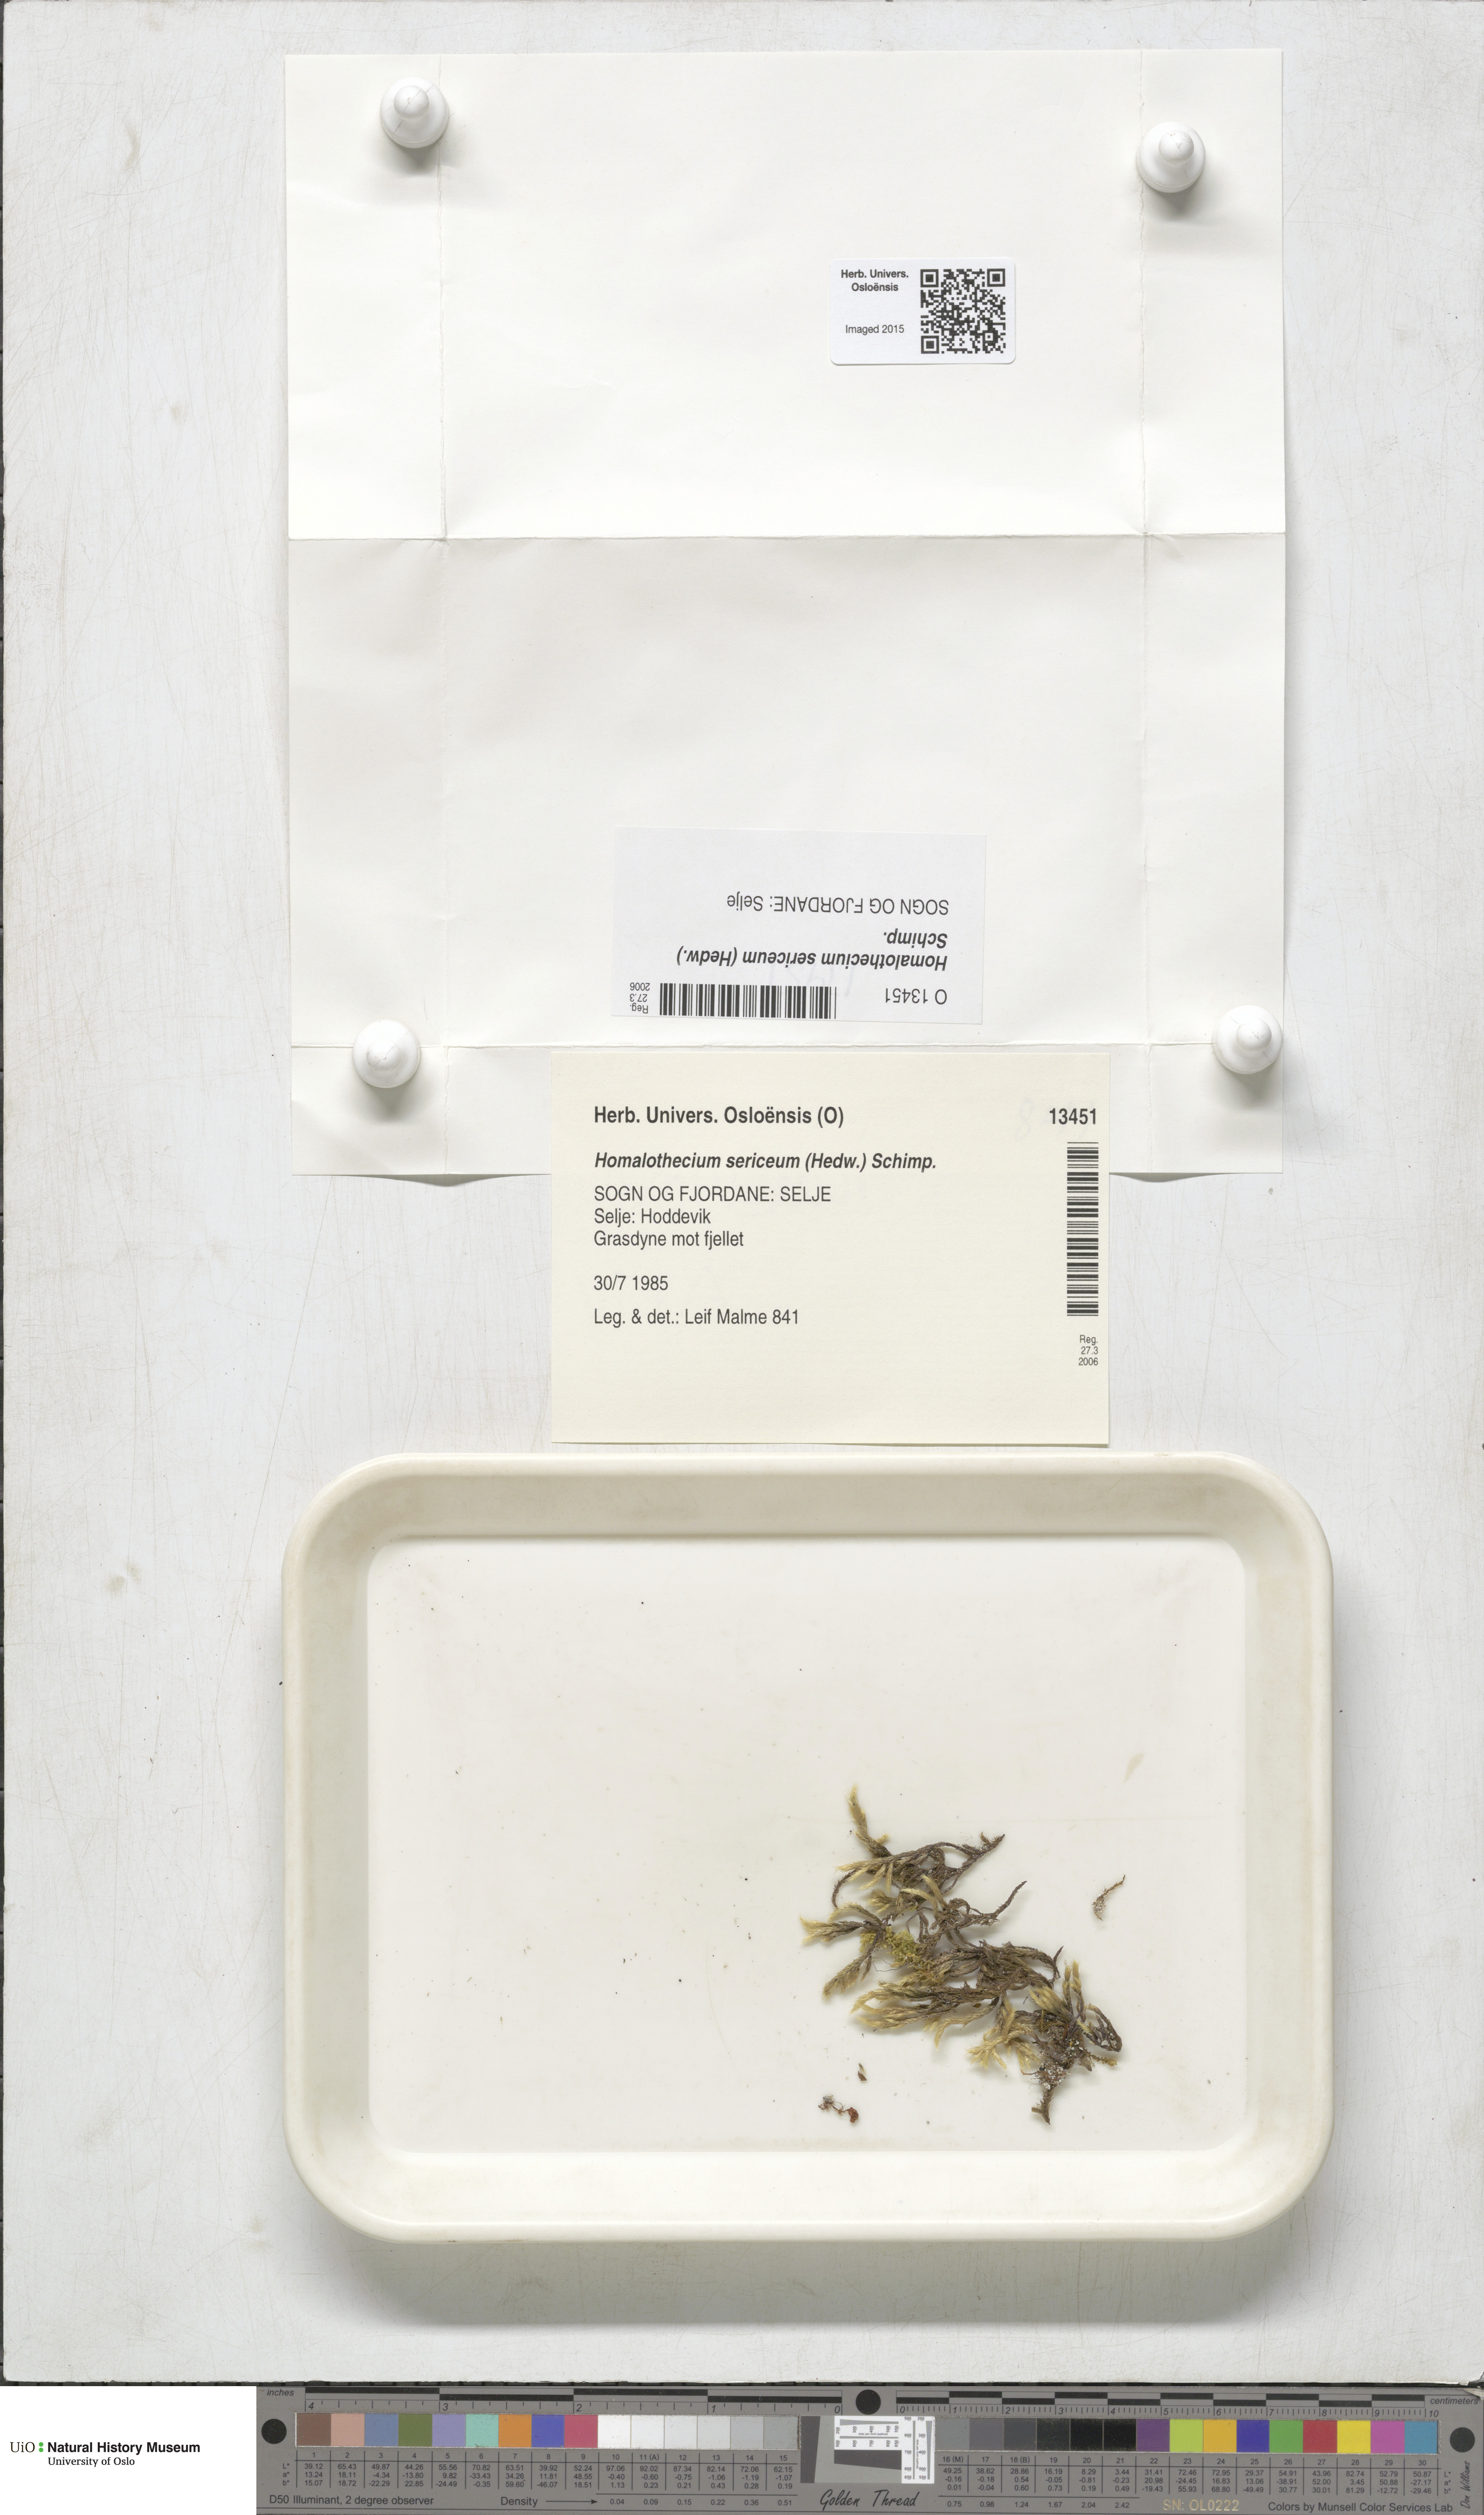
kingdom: Plantae
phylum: Bryophyta
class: Bryopsida
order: Hypnales
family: Brachytheciaceae
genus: Homalothecium
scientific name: Homalothecium sericeum
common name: Silky wall feather-moss
